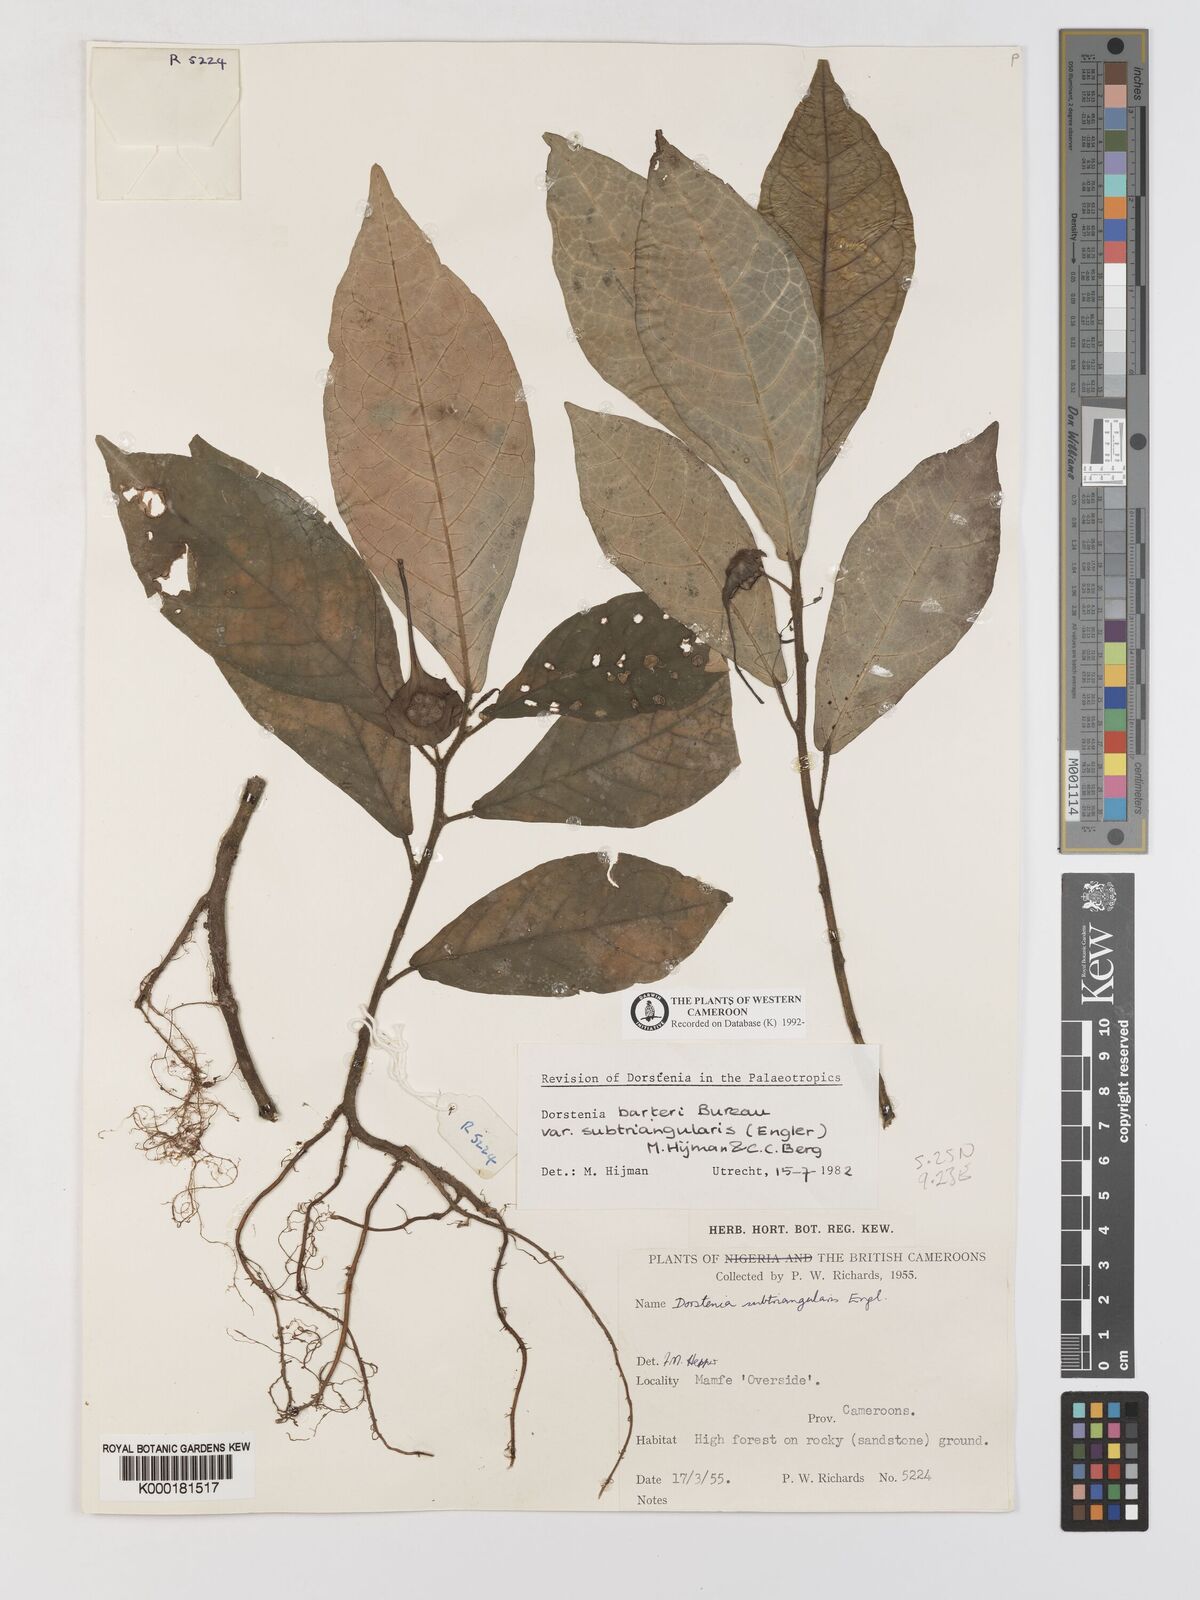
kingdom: Plantae
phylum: Tracheophyta
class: Magnoliopsida
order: Rosales
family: Moraceae
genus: Dorstenia
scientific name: Dorstenia barteri
